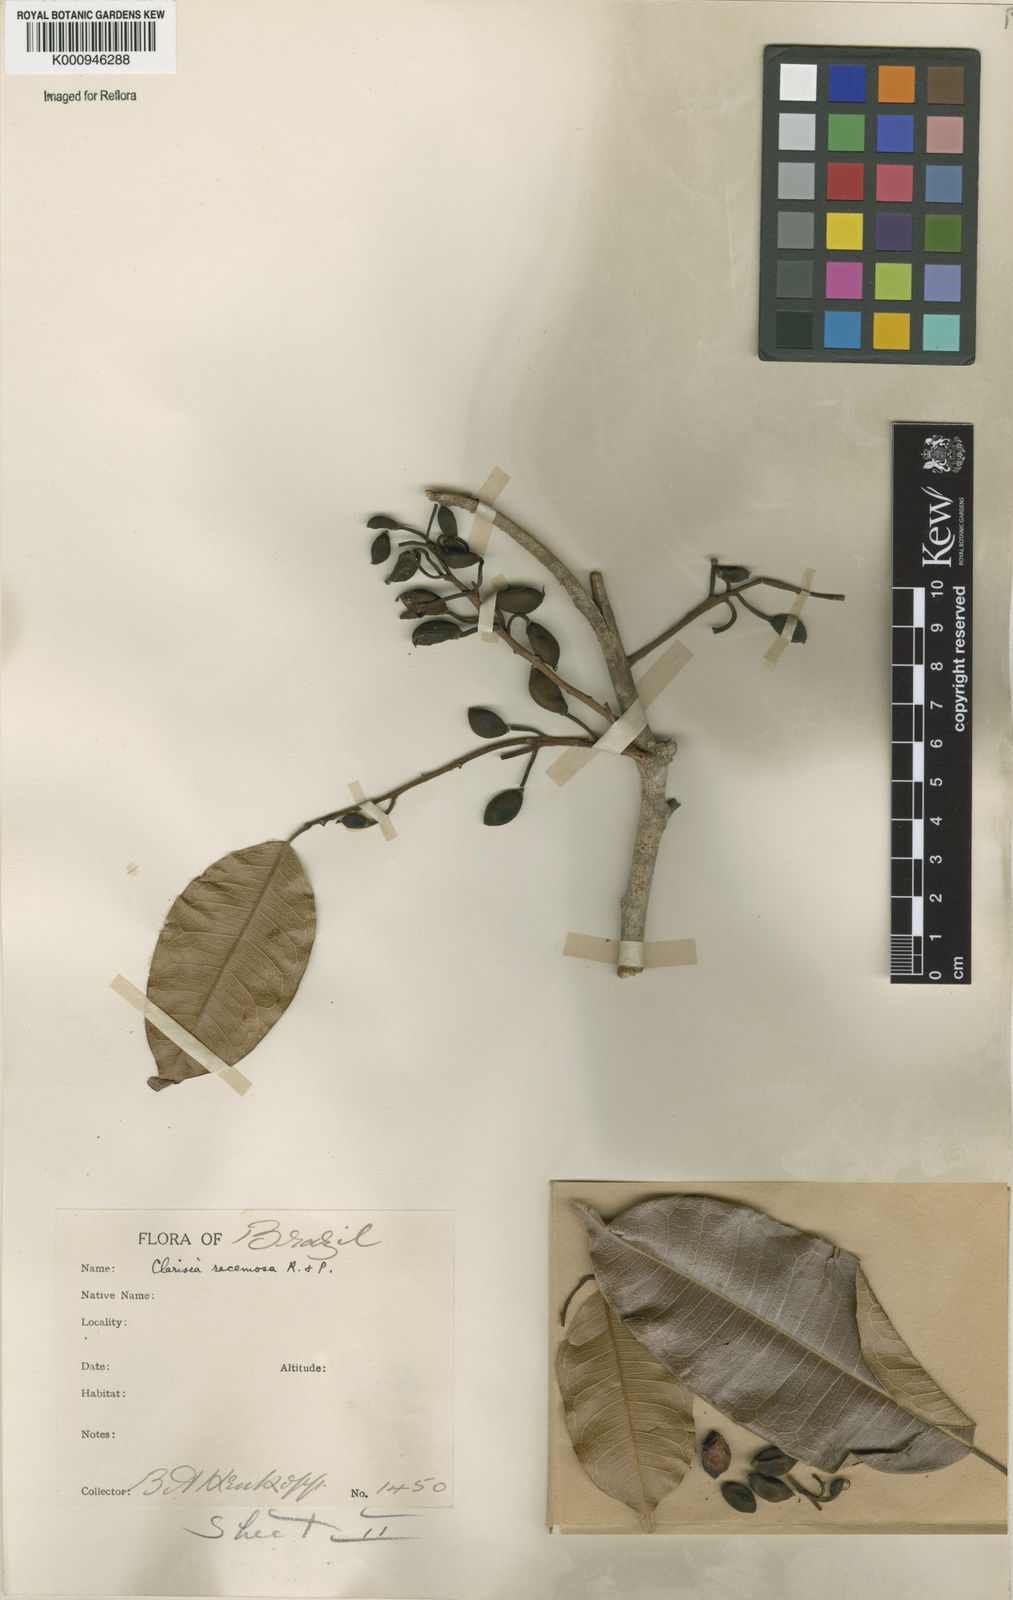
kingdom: Plantae
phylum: Tracheophyta
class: Magnoliopsida
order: Rosales
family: Moraceae
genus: Clarisia
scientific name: Clarisia racemosa
